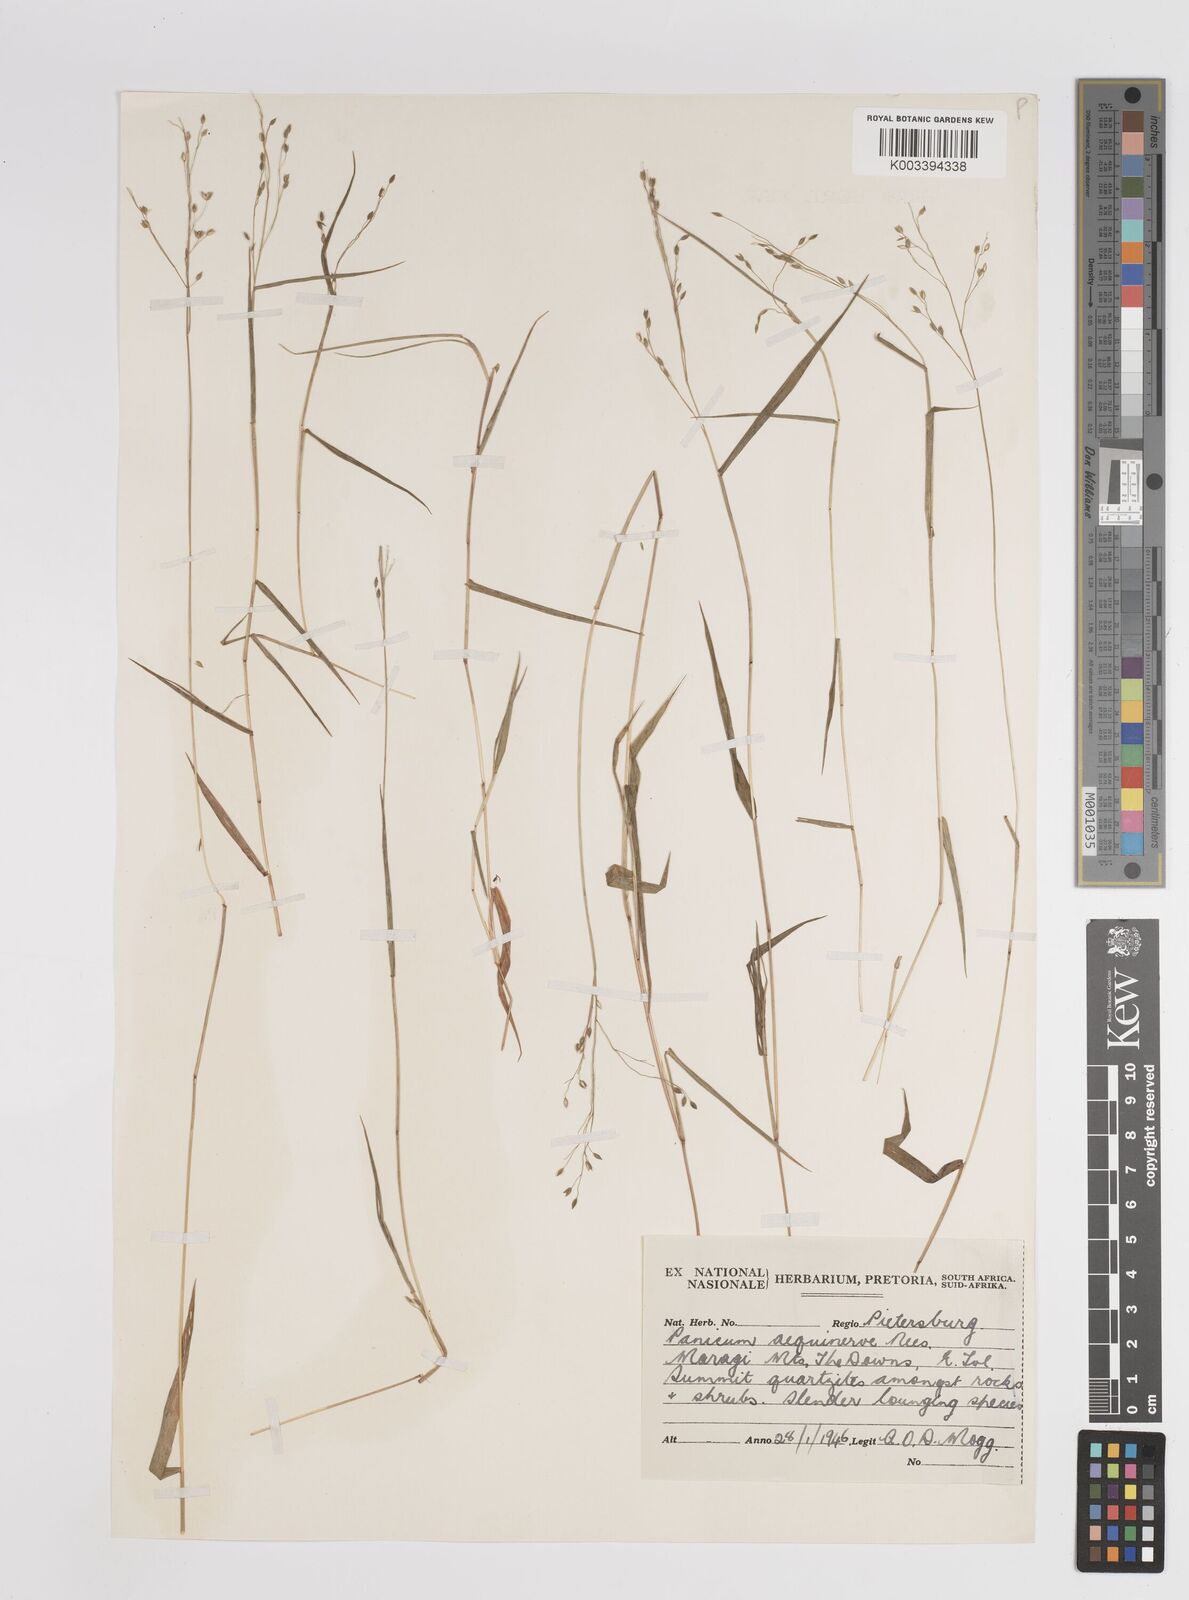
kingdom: Plantae
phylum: Tracheophyta
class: Liliopsida
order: Poales
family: Poaceae
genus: Panicum
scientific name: Panicum aequinerve
